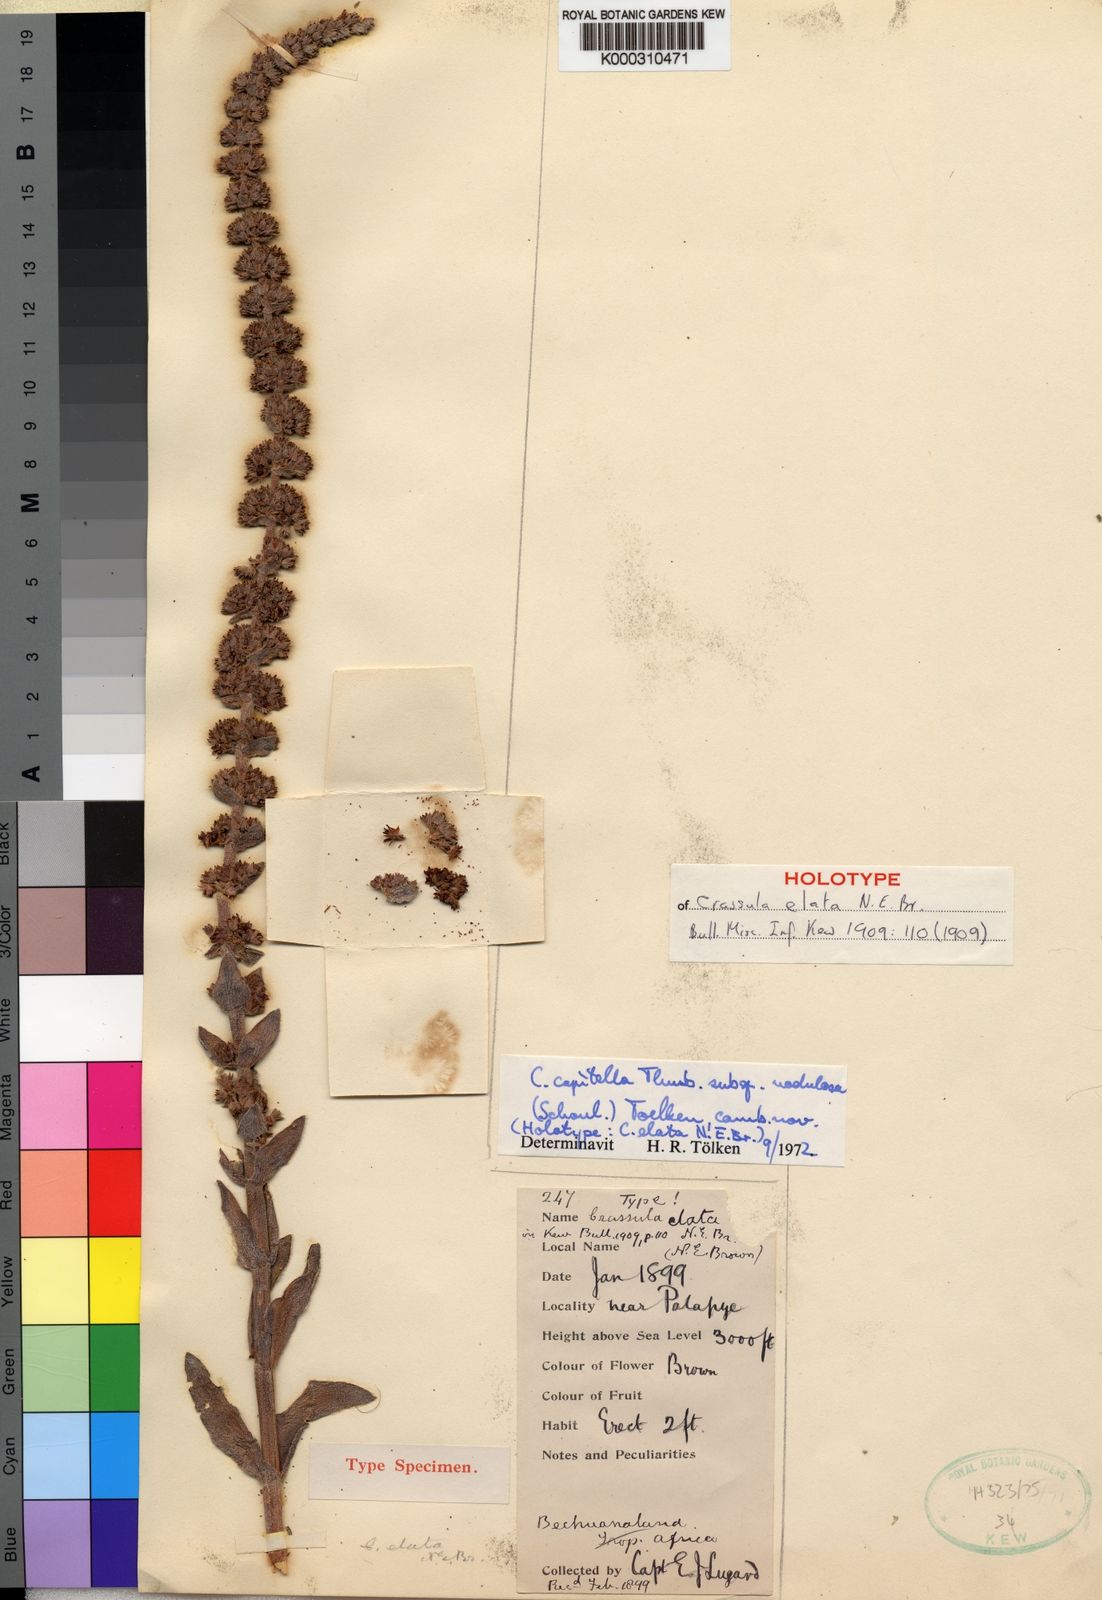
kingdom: Plantae
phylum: Tracheophyta
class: Magnoliopsida
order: Saxifragales
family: Crassulaceae
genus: Crassula
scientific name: Crassula
